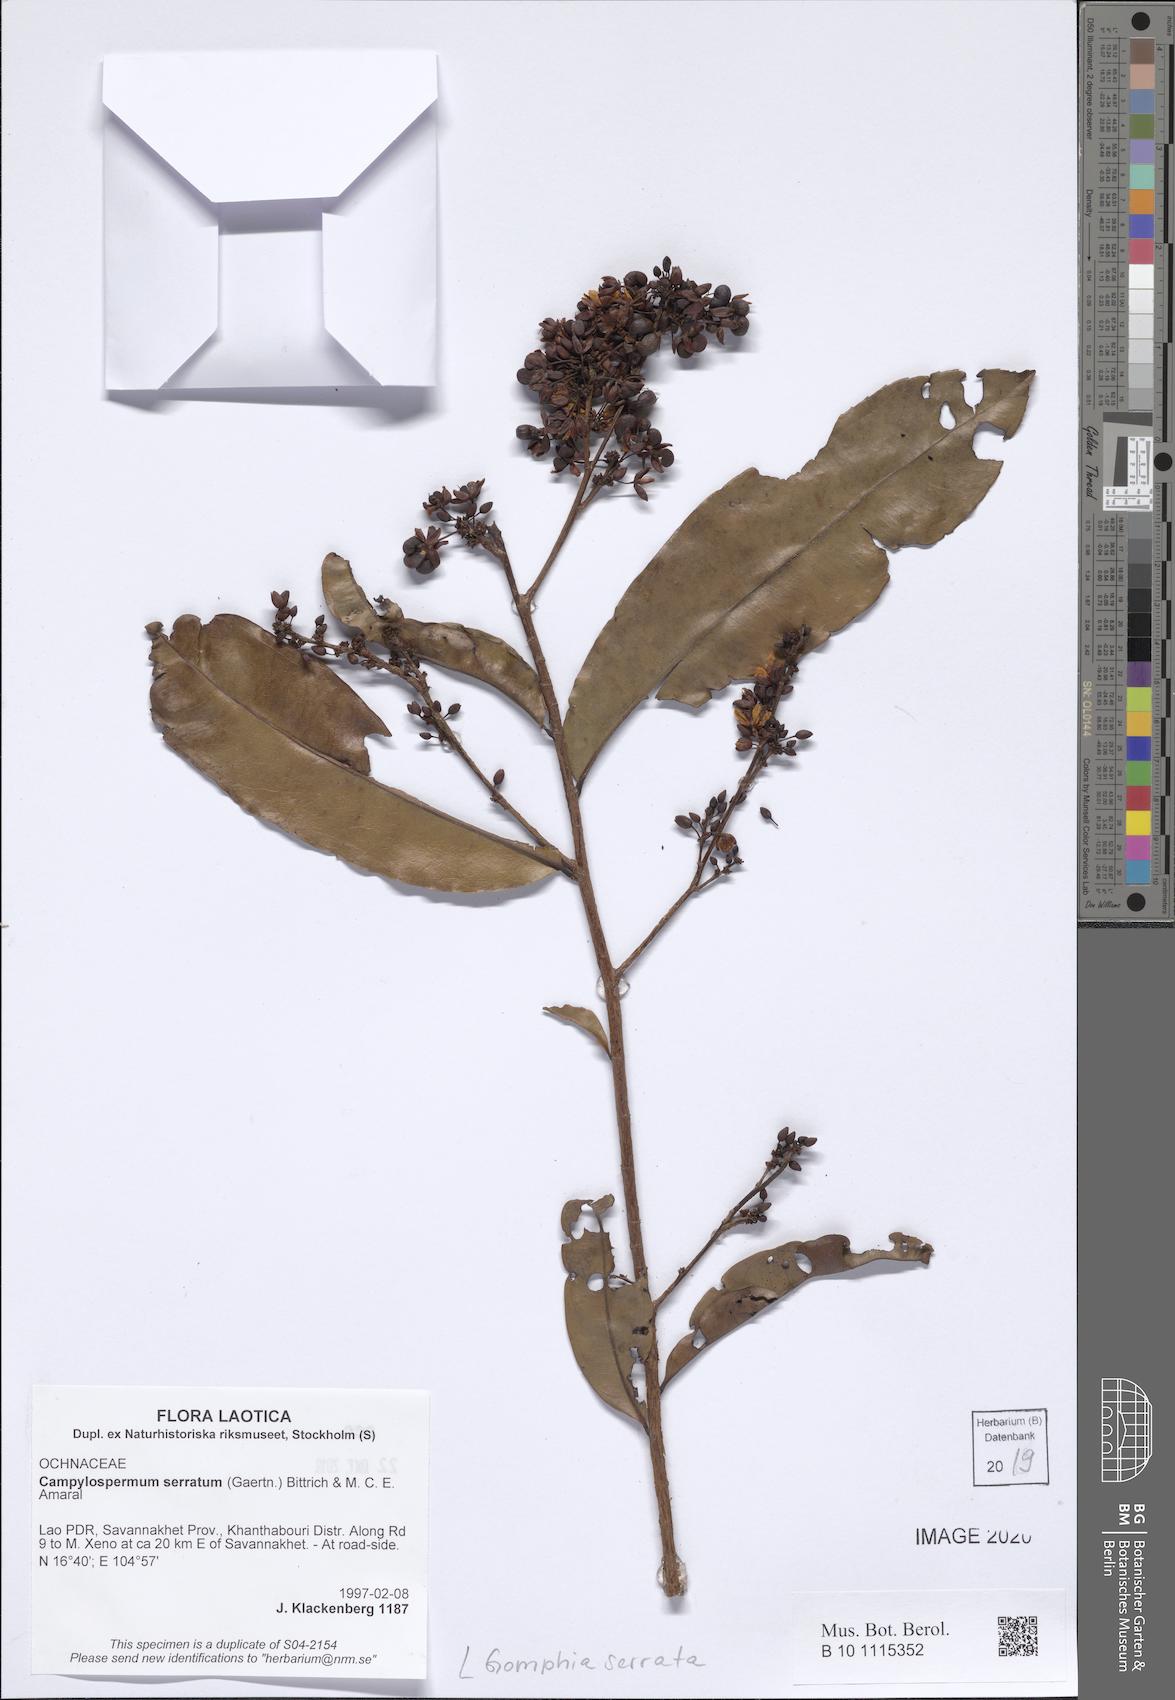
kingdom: Plantae
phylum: Tracheophyta
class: Magnoliopsida
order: Malpighiales
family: Ochnaceae
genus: Gomphia
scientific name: Gomphia serrata
